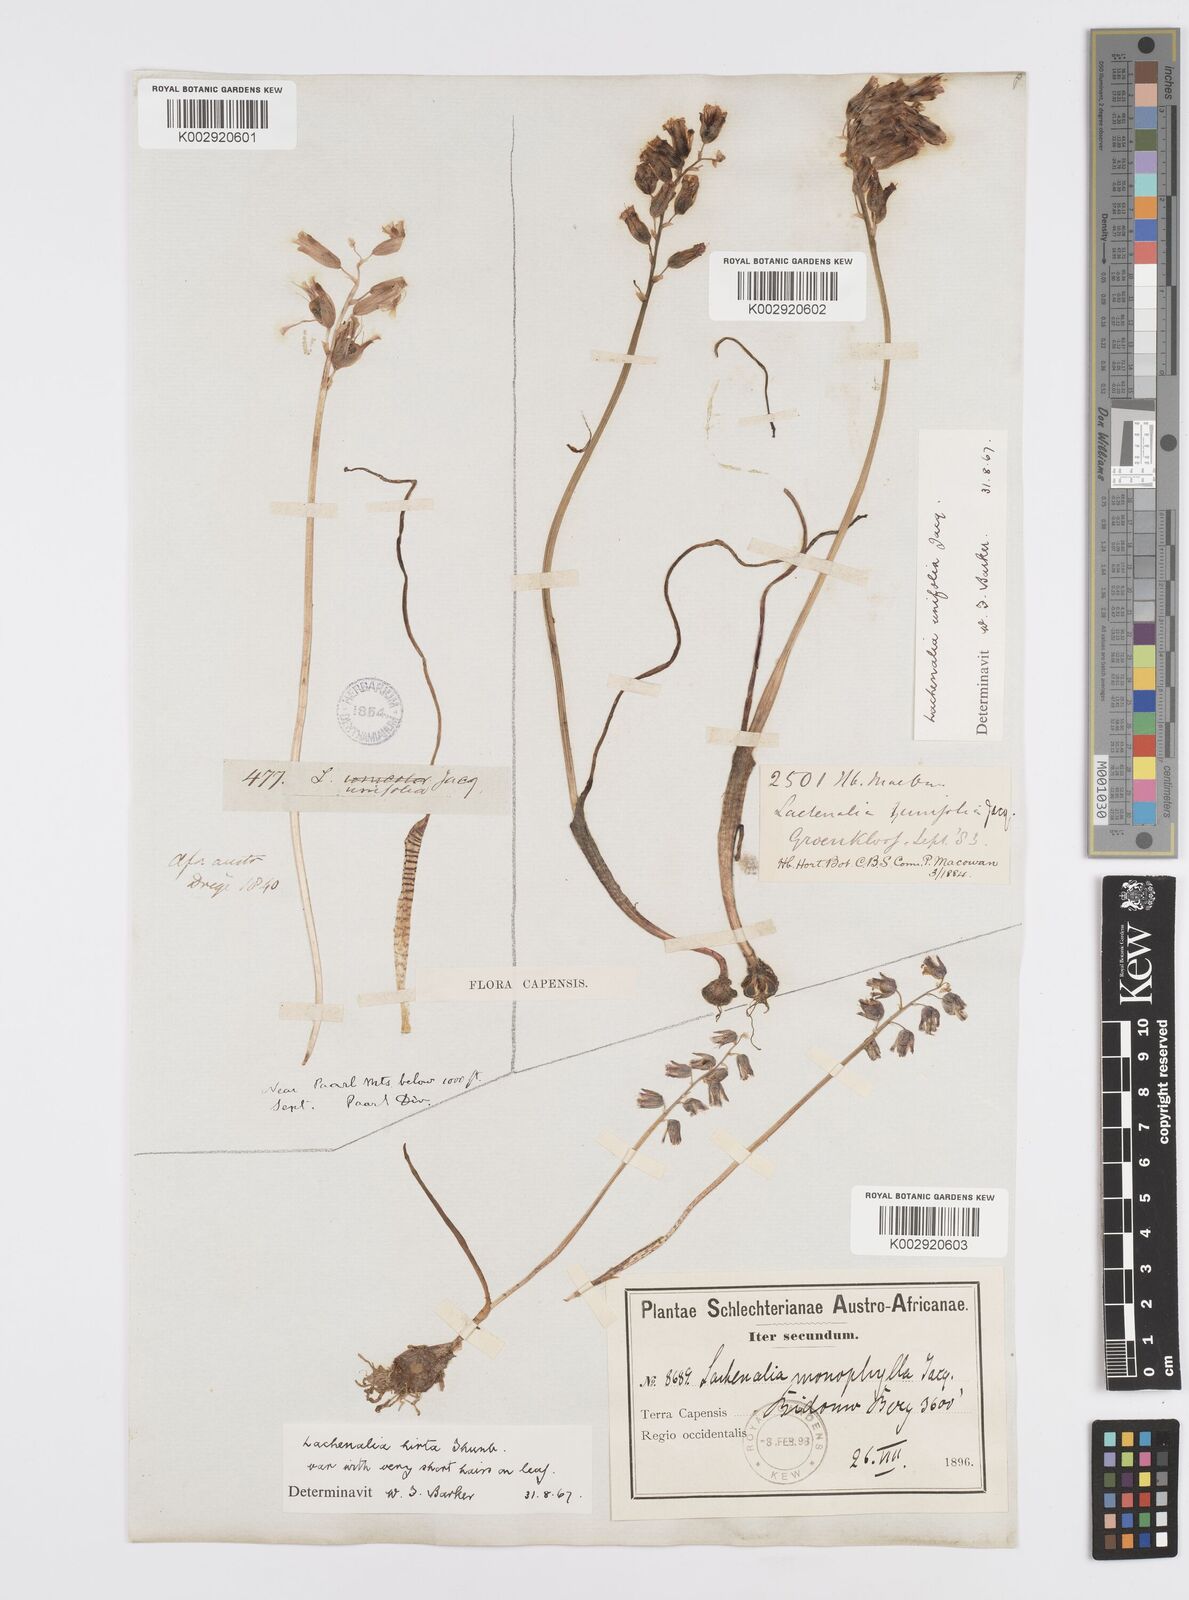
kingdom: Plantae
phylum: Tracheophyta
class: Liliopsida
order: Asparagales
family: Asparagaceae
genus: Lachenalia
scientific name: Lachenalia unifolia
